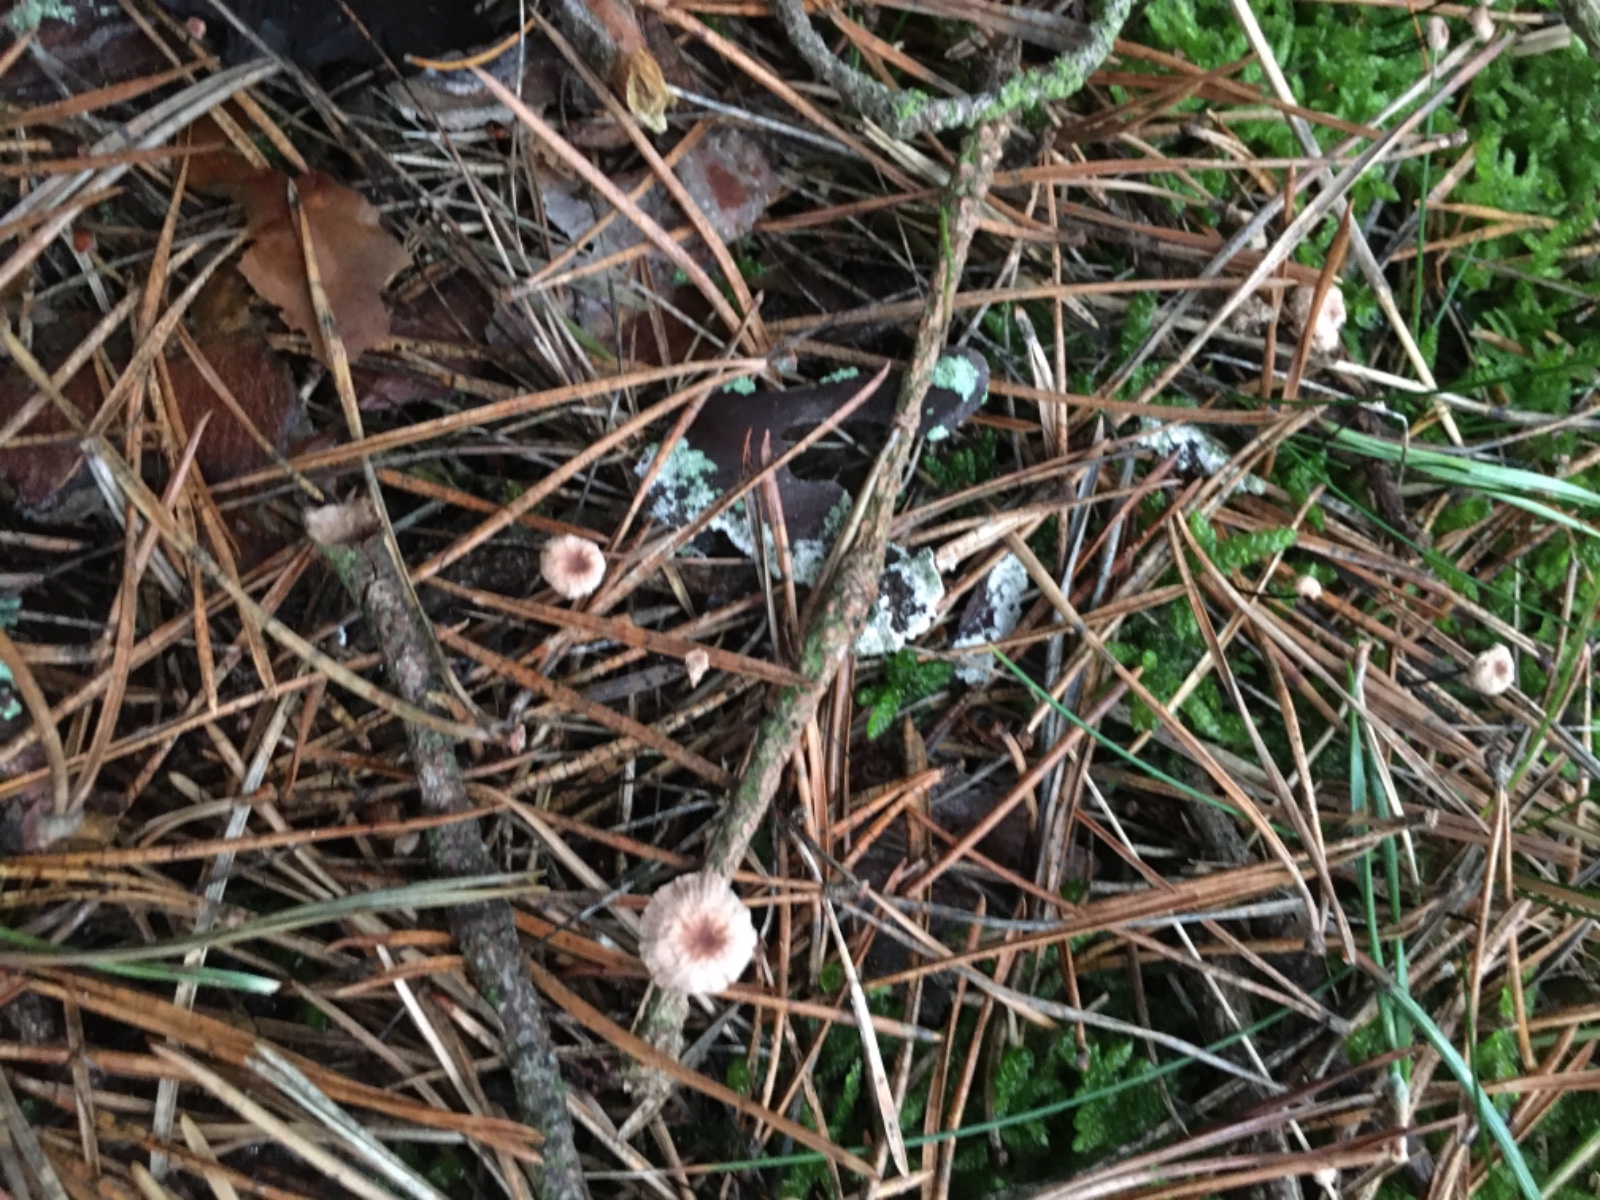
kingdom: Fungi
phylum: Basidiomycota
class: Agaricomycetes
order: Agaricales
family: Omphalotaceae
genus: Gymnopus
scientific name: Gymnopus androsaceus
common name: trådstokket fladhat
